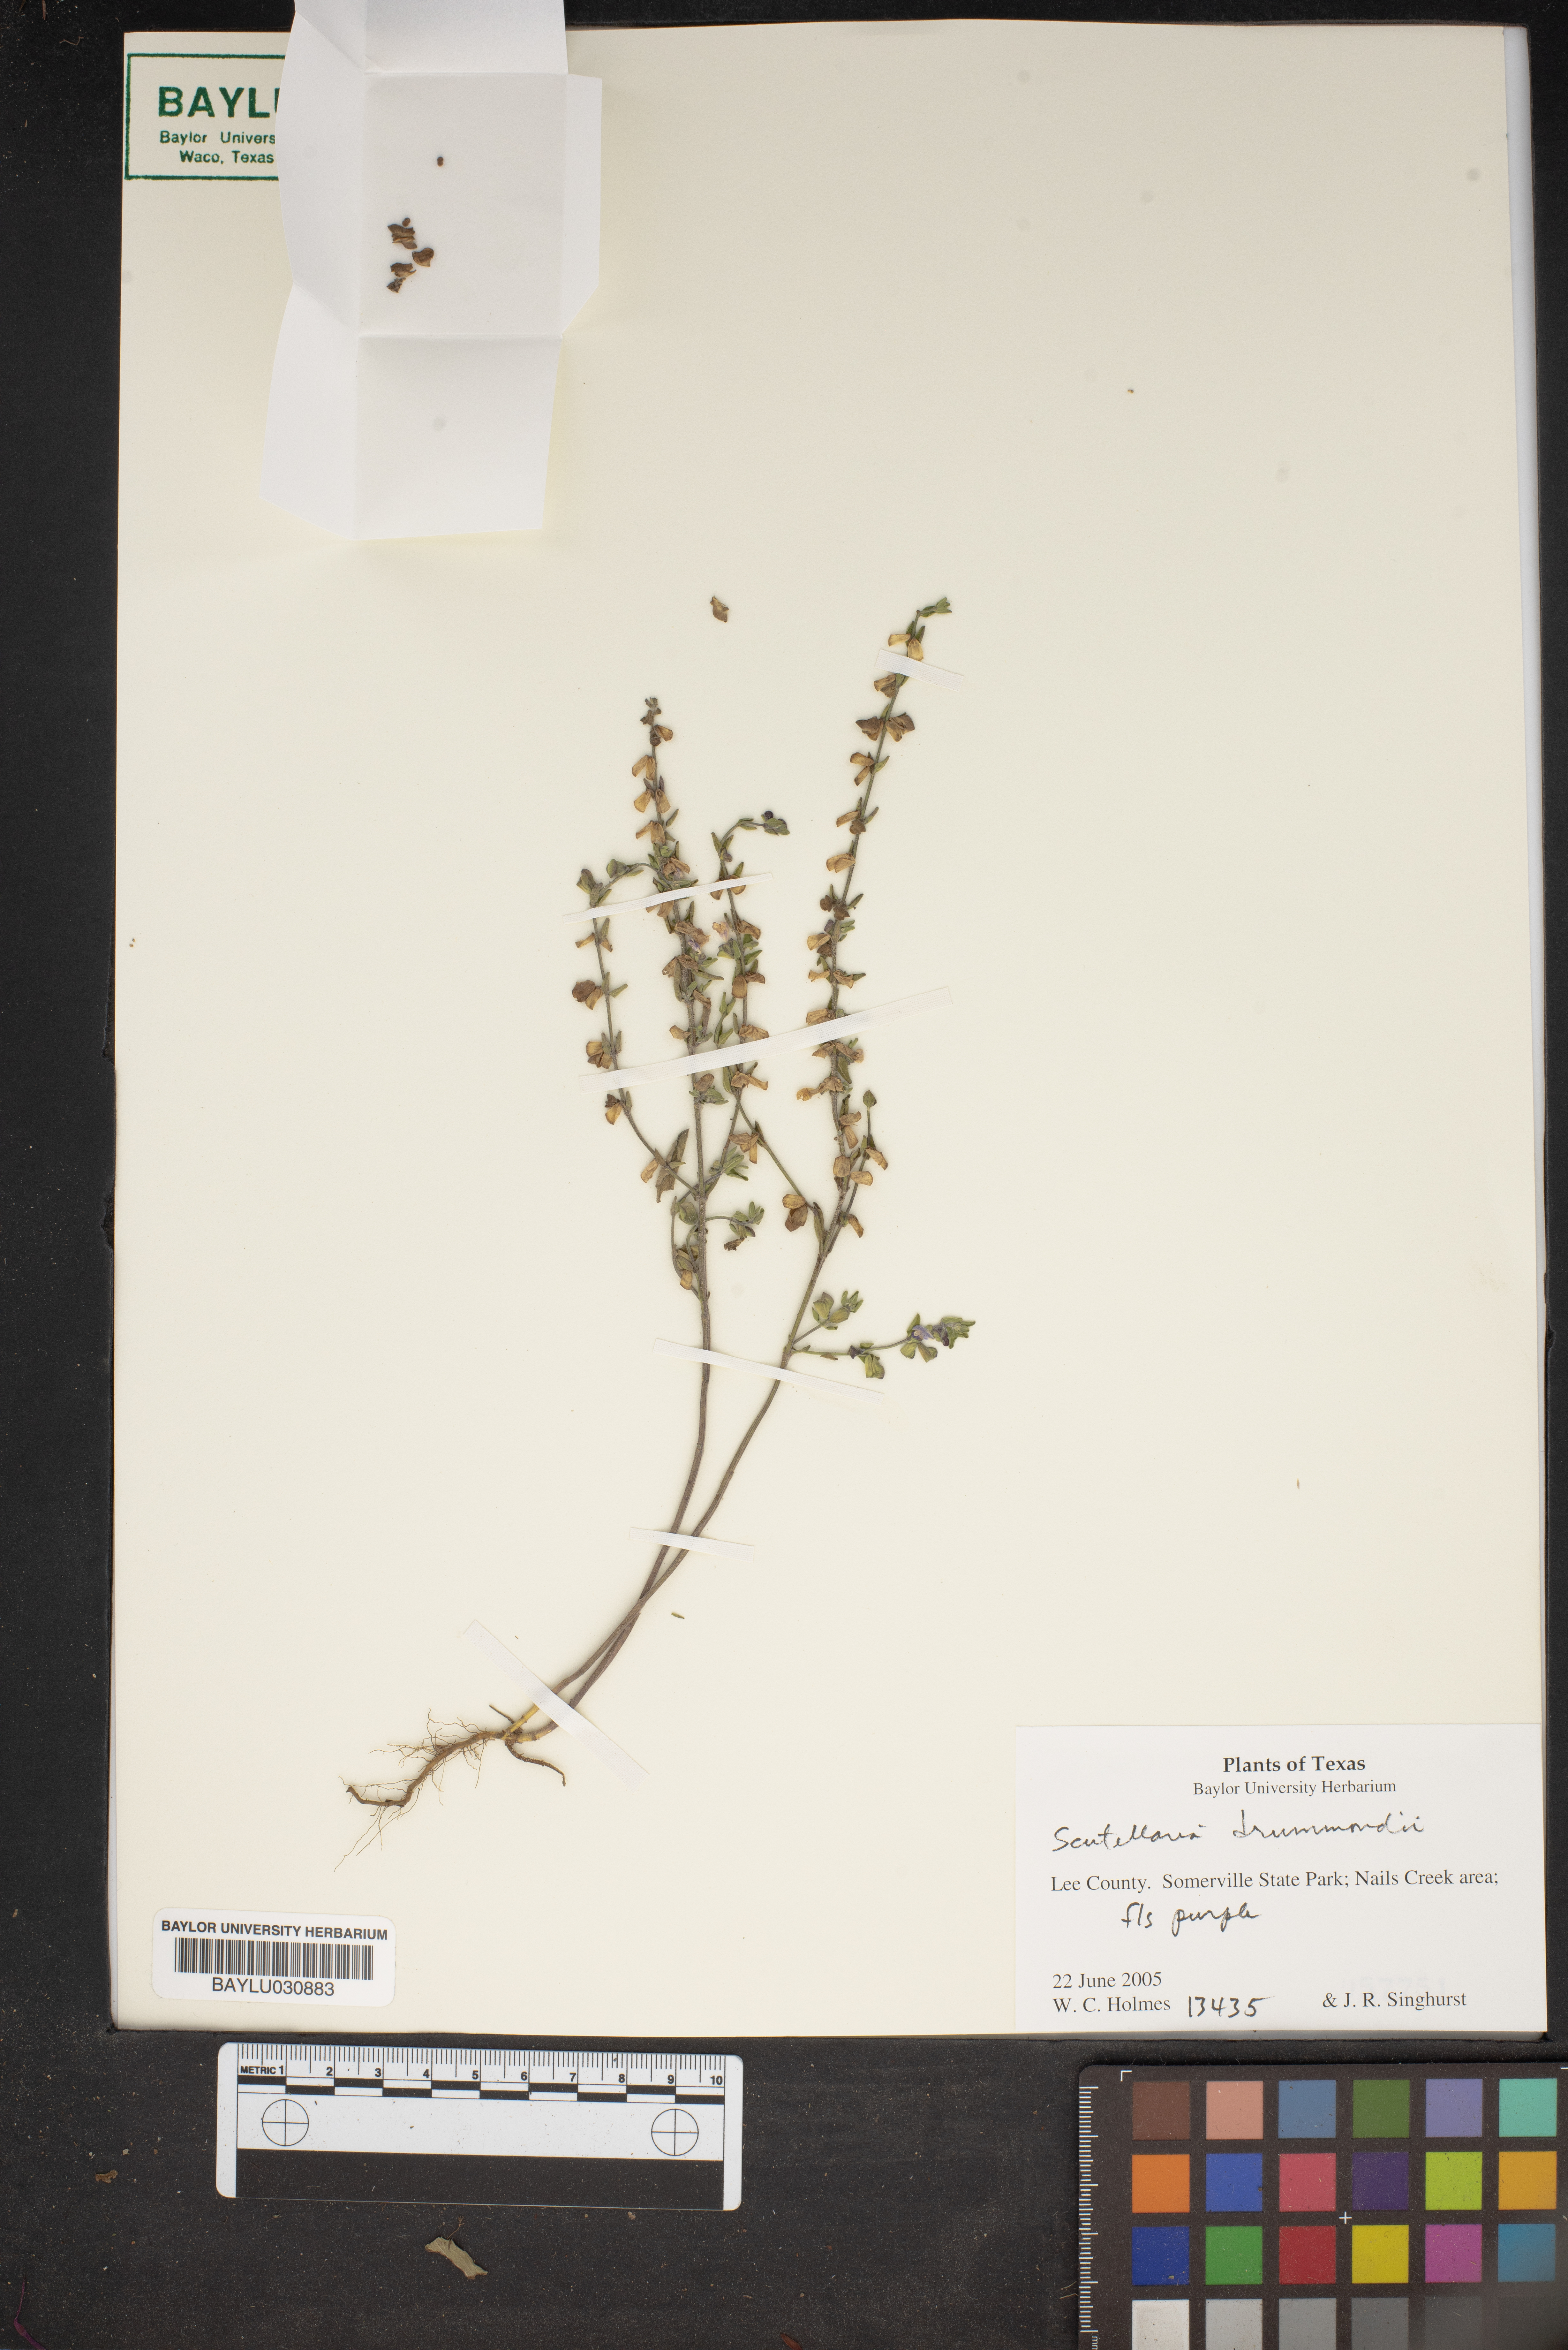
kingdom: Plantae
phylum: Tracheophyta
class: Magnoliopsida
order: Lamiales
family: Lamiaceae
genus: Scutellaria
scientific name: Scutellaria drummondii
